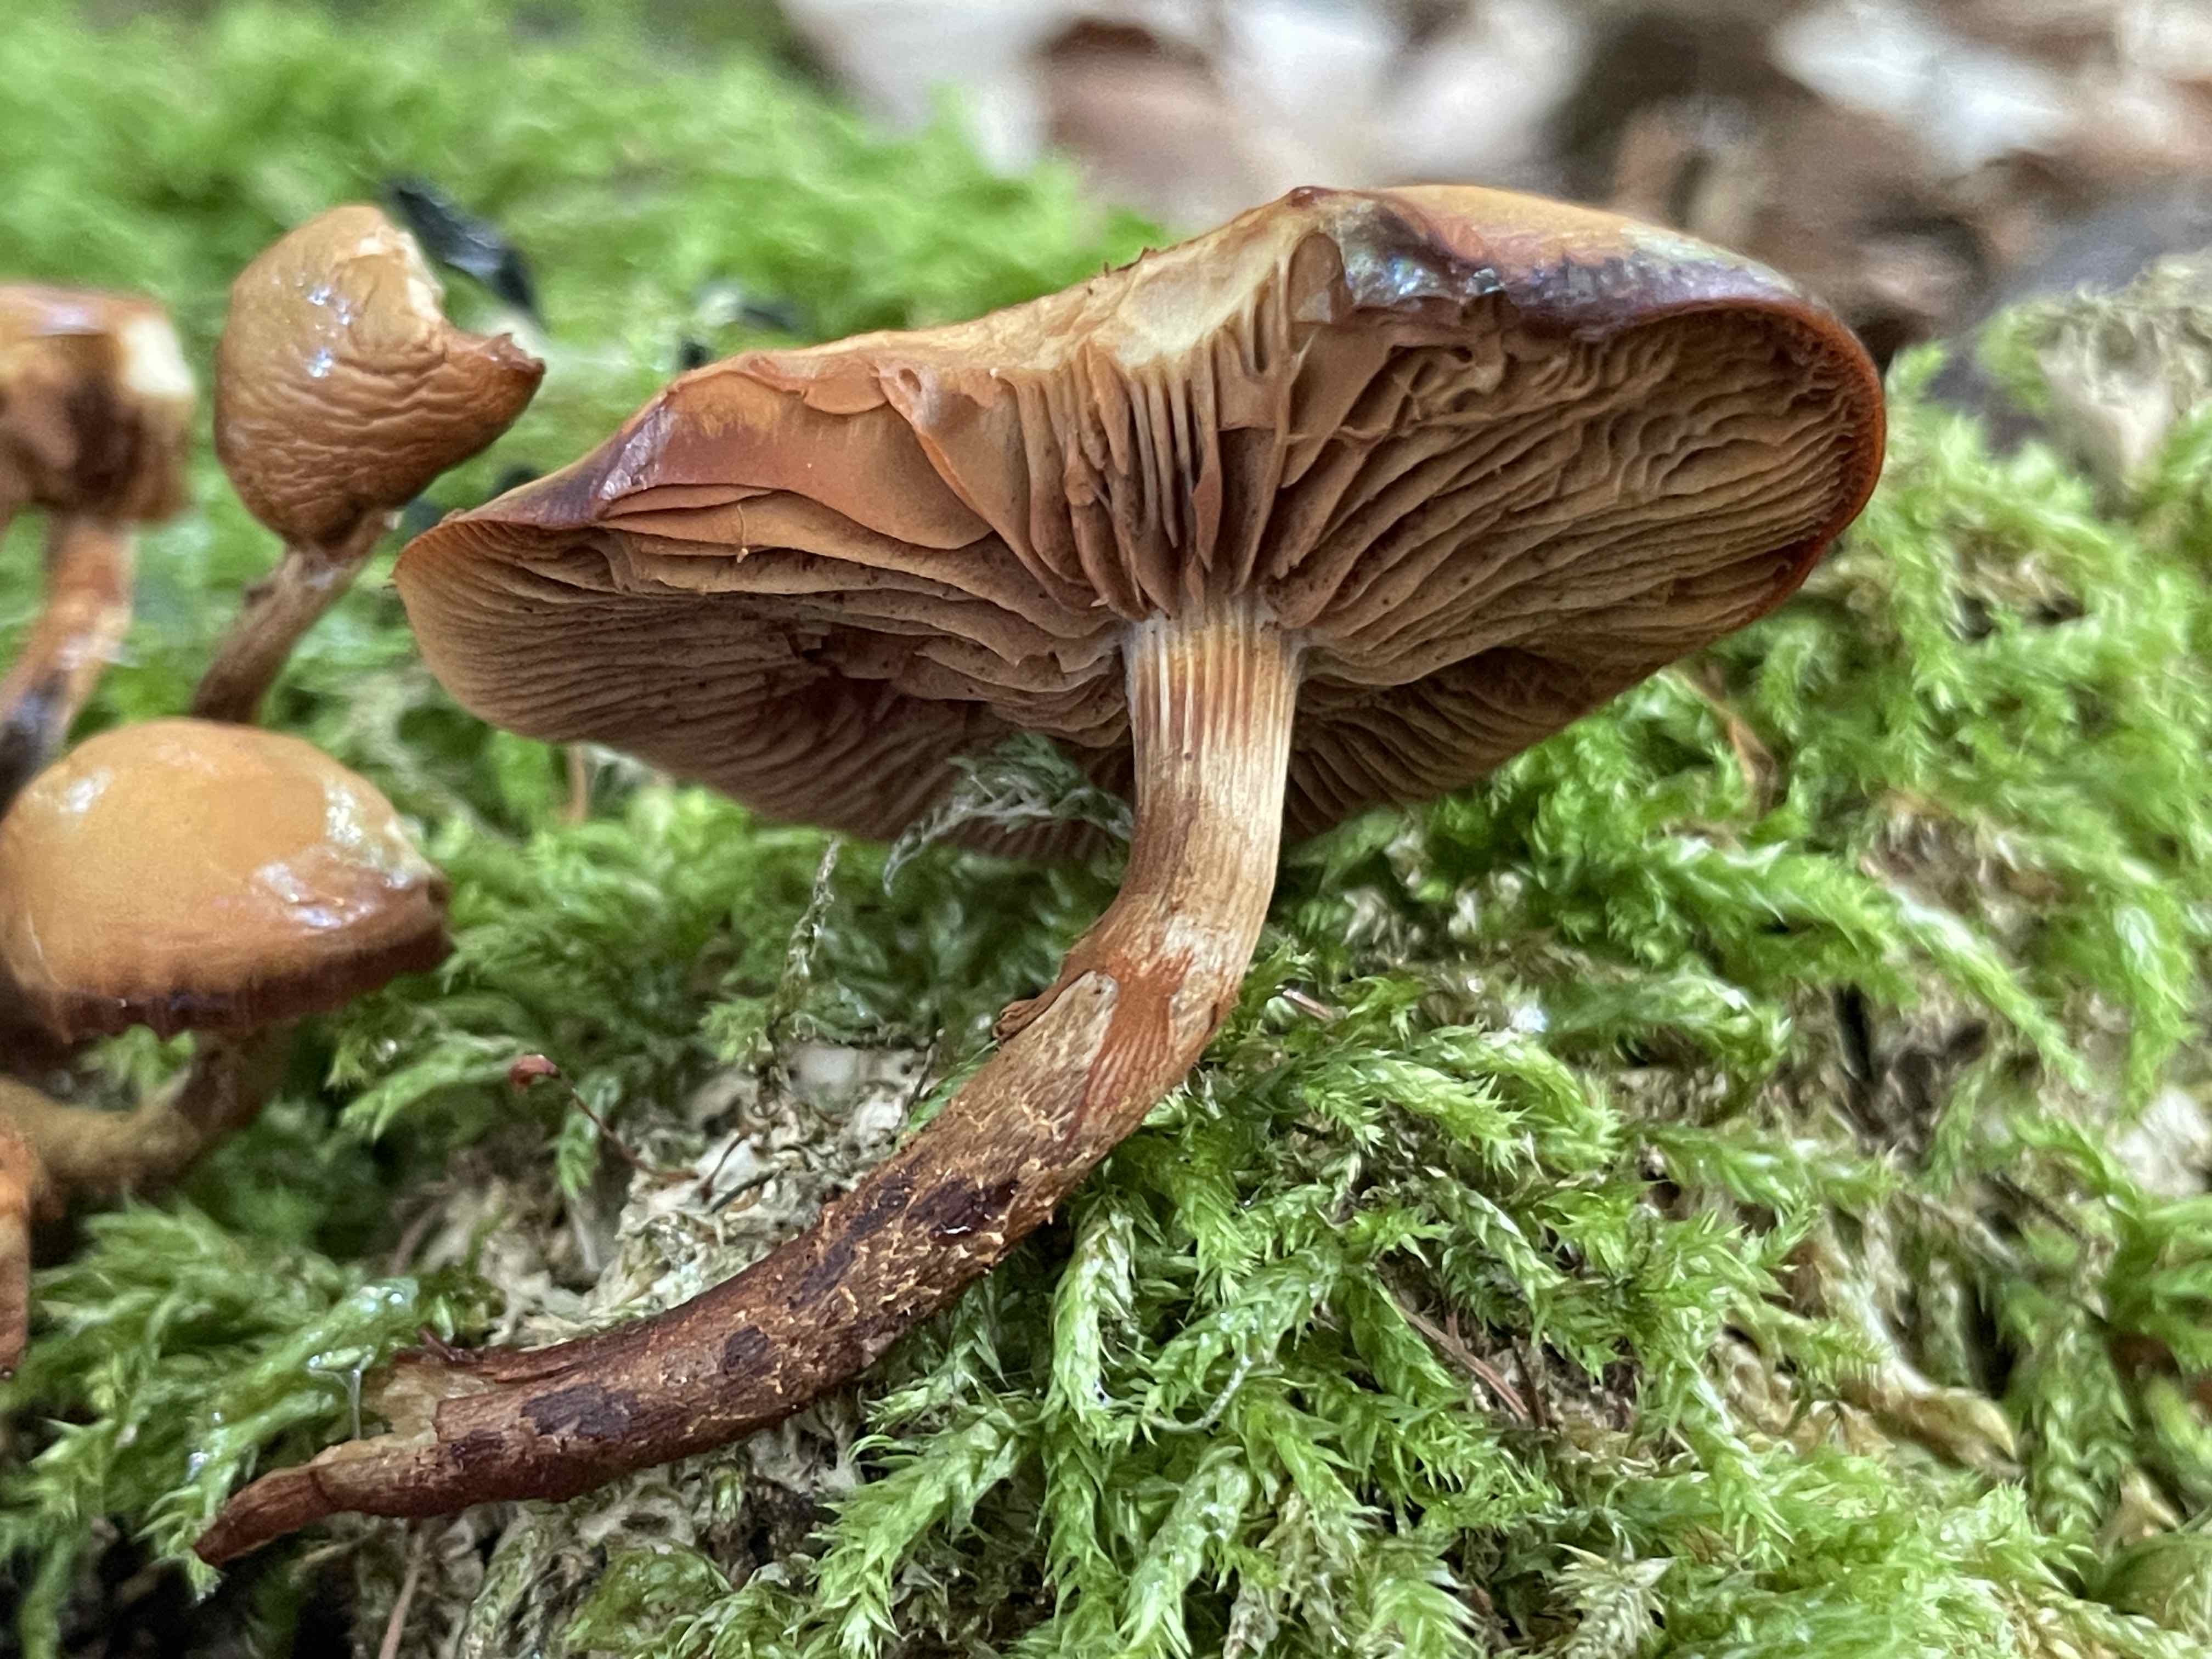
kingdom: Fungi
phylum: Basidiomycota
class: Agaricomycetes
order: Agaricales
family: Strophariaceae
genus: Kuehneromyces
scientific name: Kuehneromyces mutabilis
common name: foranderlig skælhat
